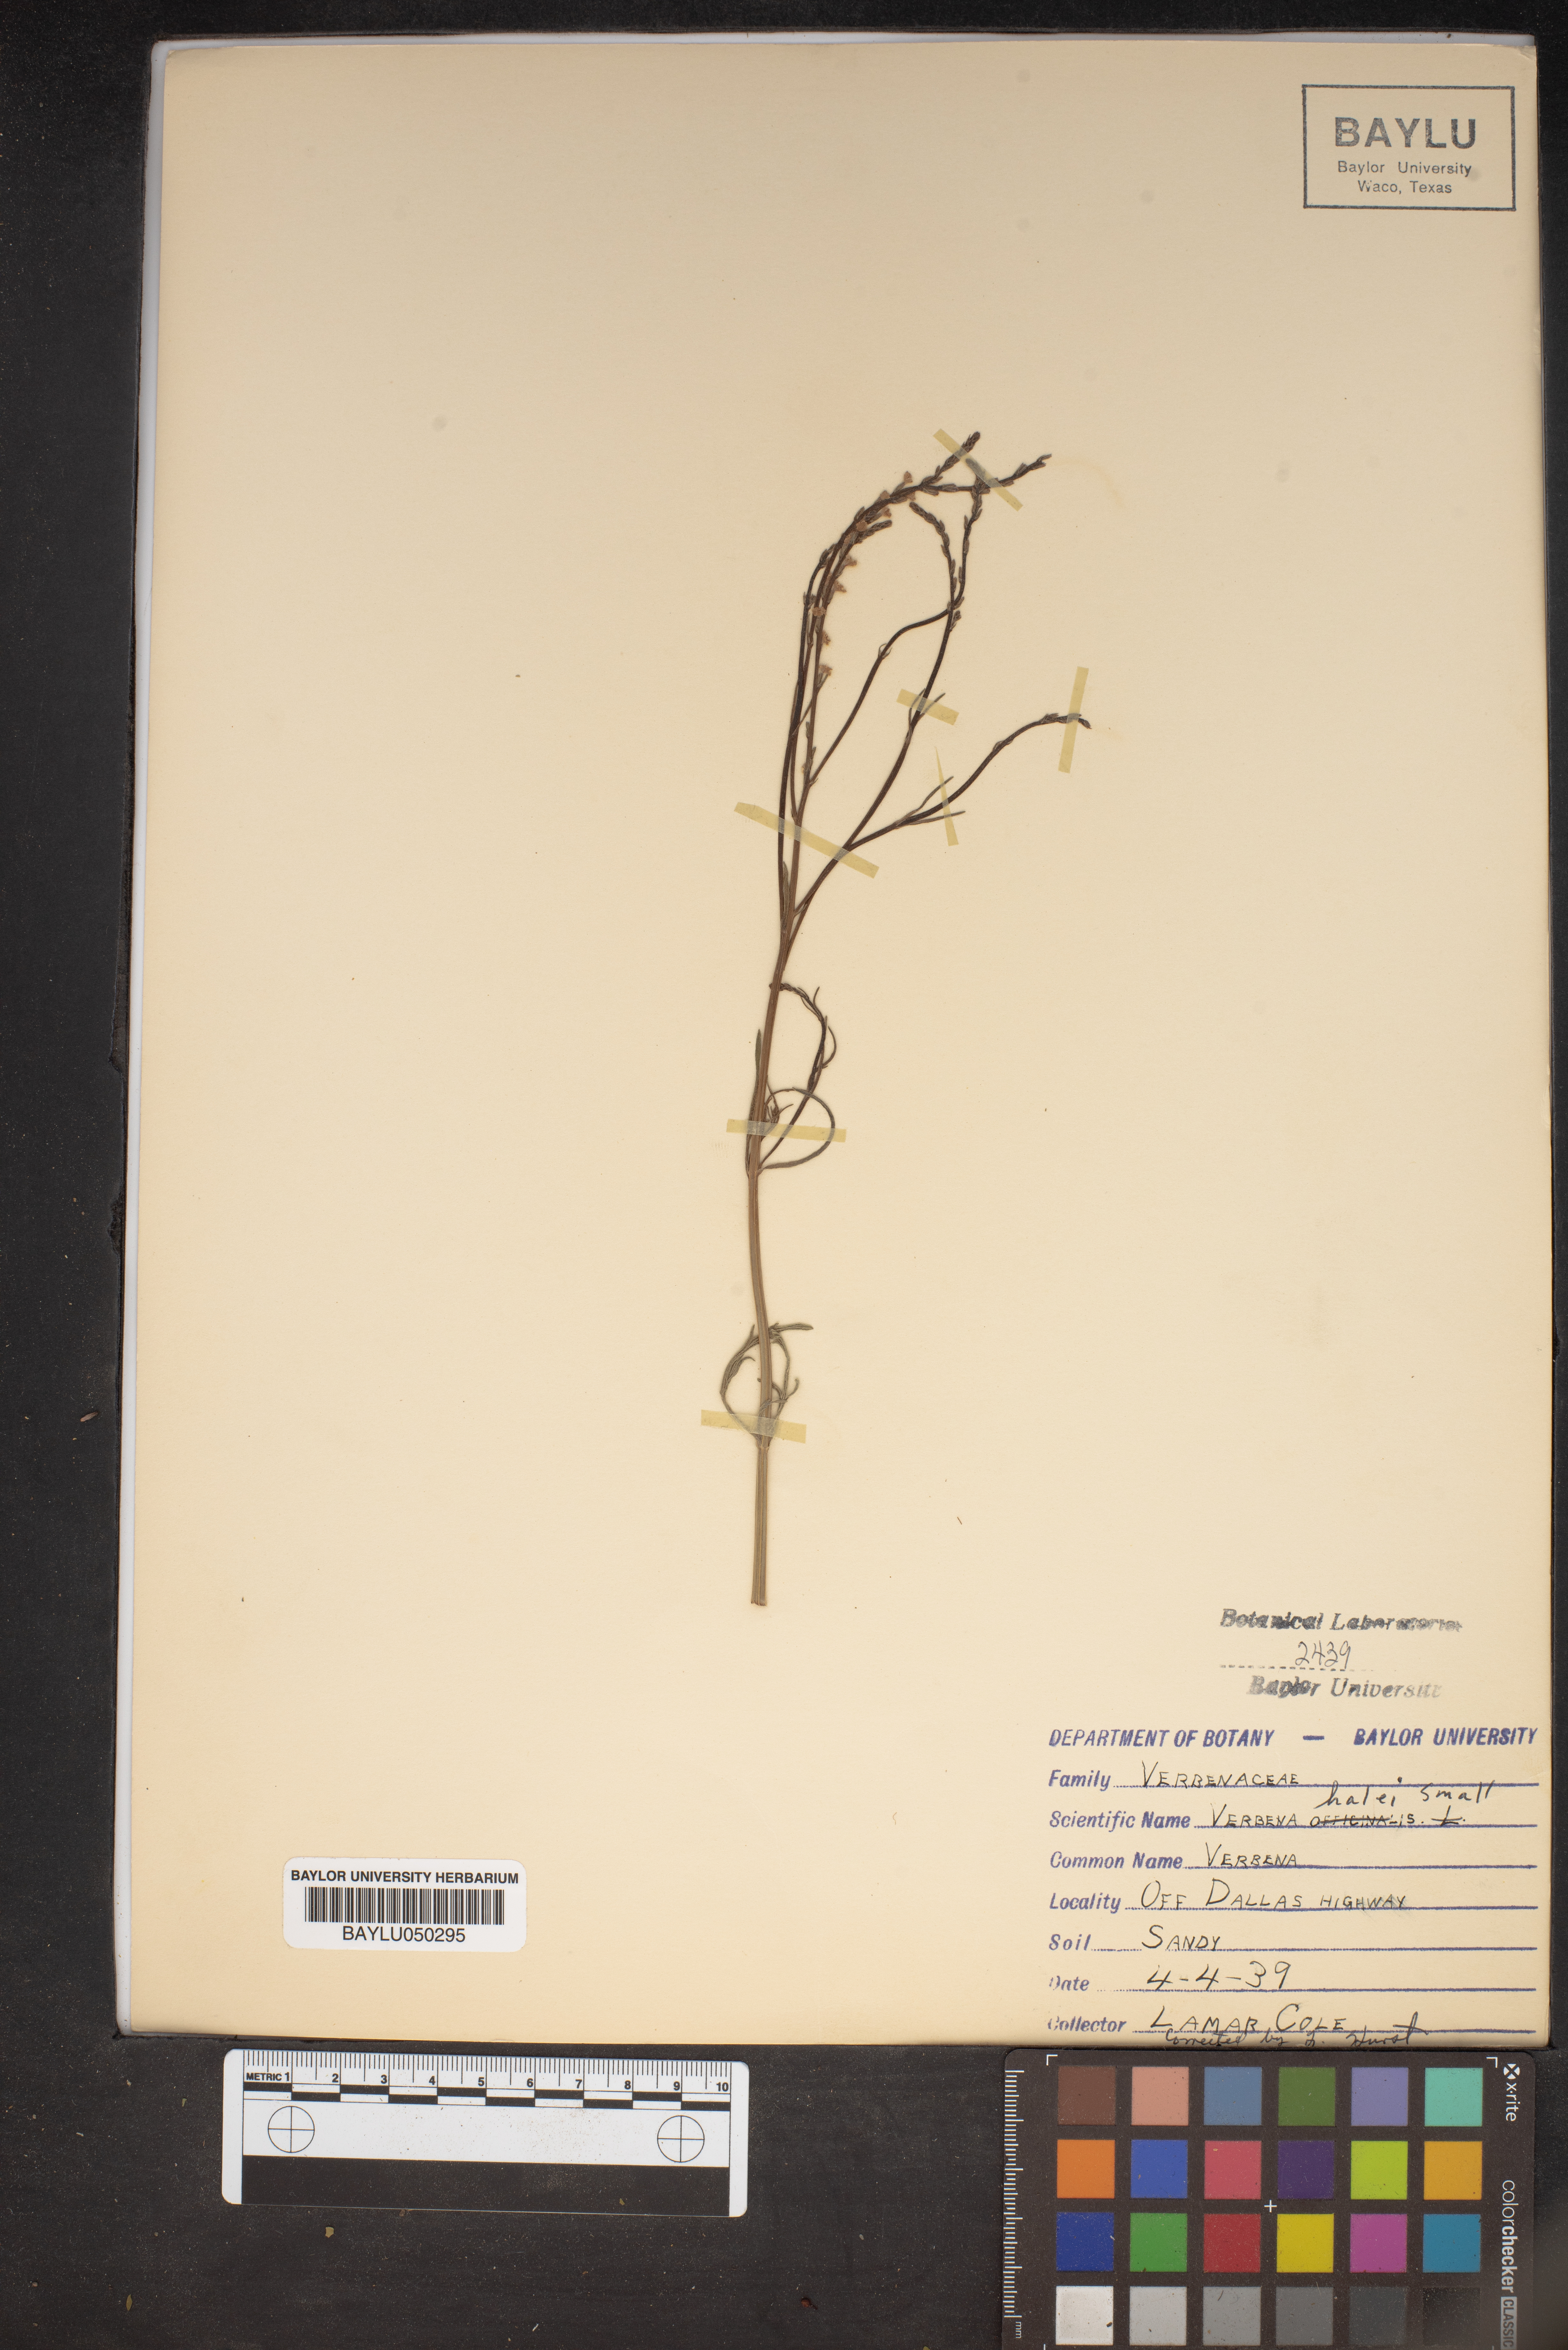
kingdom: Plantae
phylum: Tracheophyta
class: Magnoliopsida
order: Lamiales
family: Verbenaceae
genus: Verbena
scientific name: Verbena halei
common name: Texas vervain
